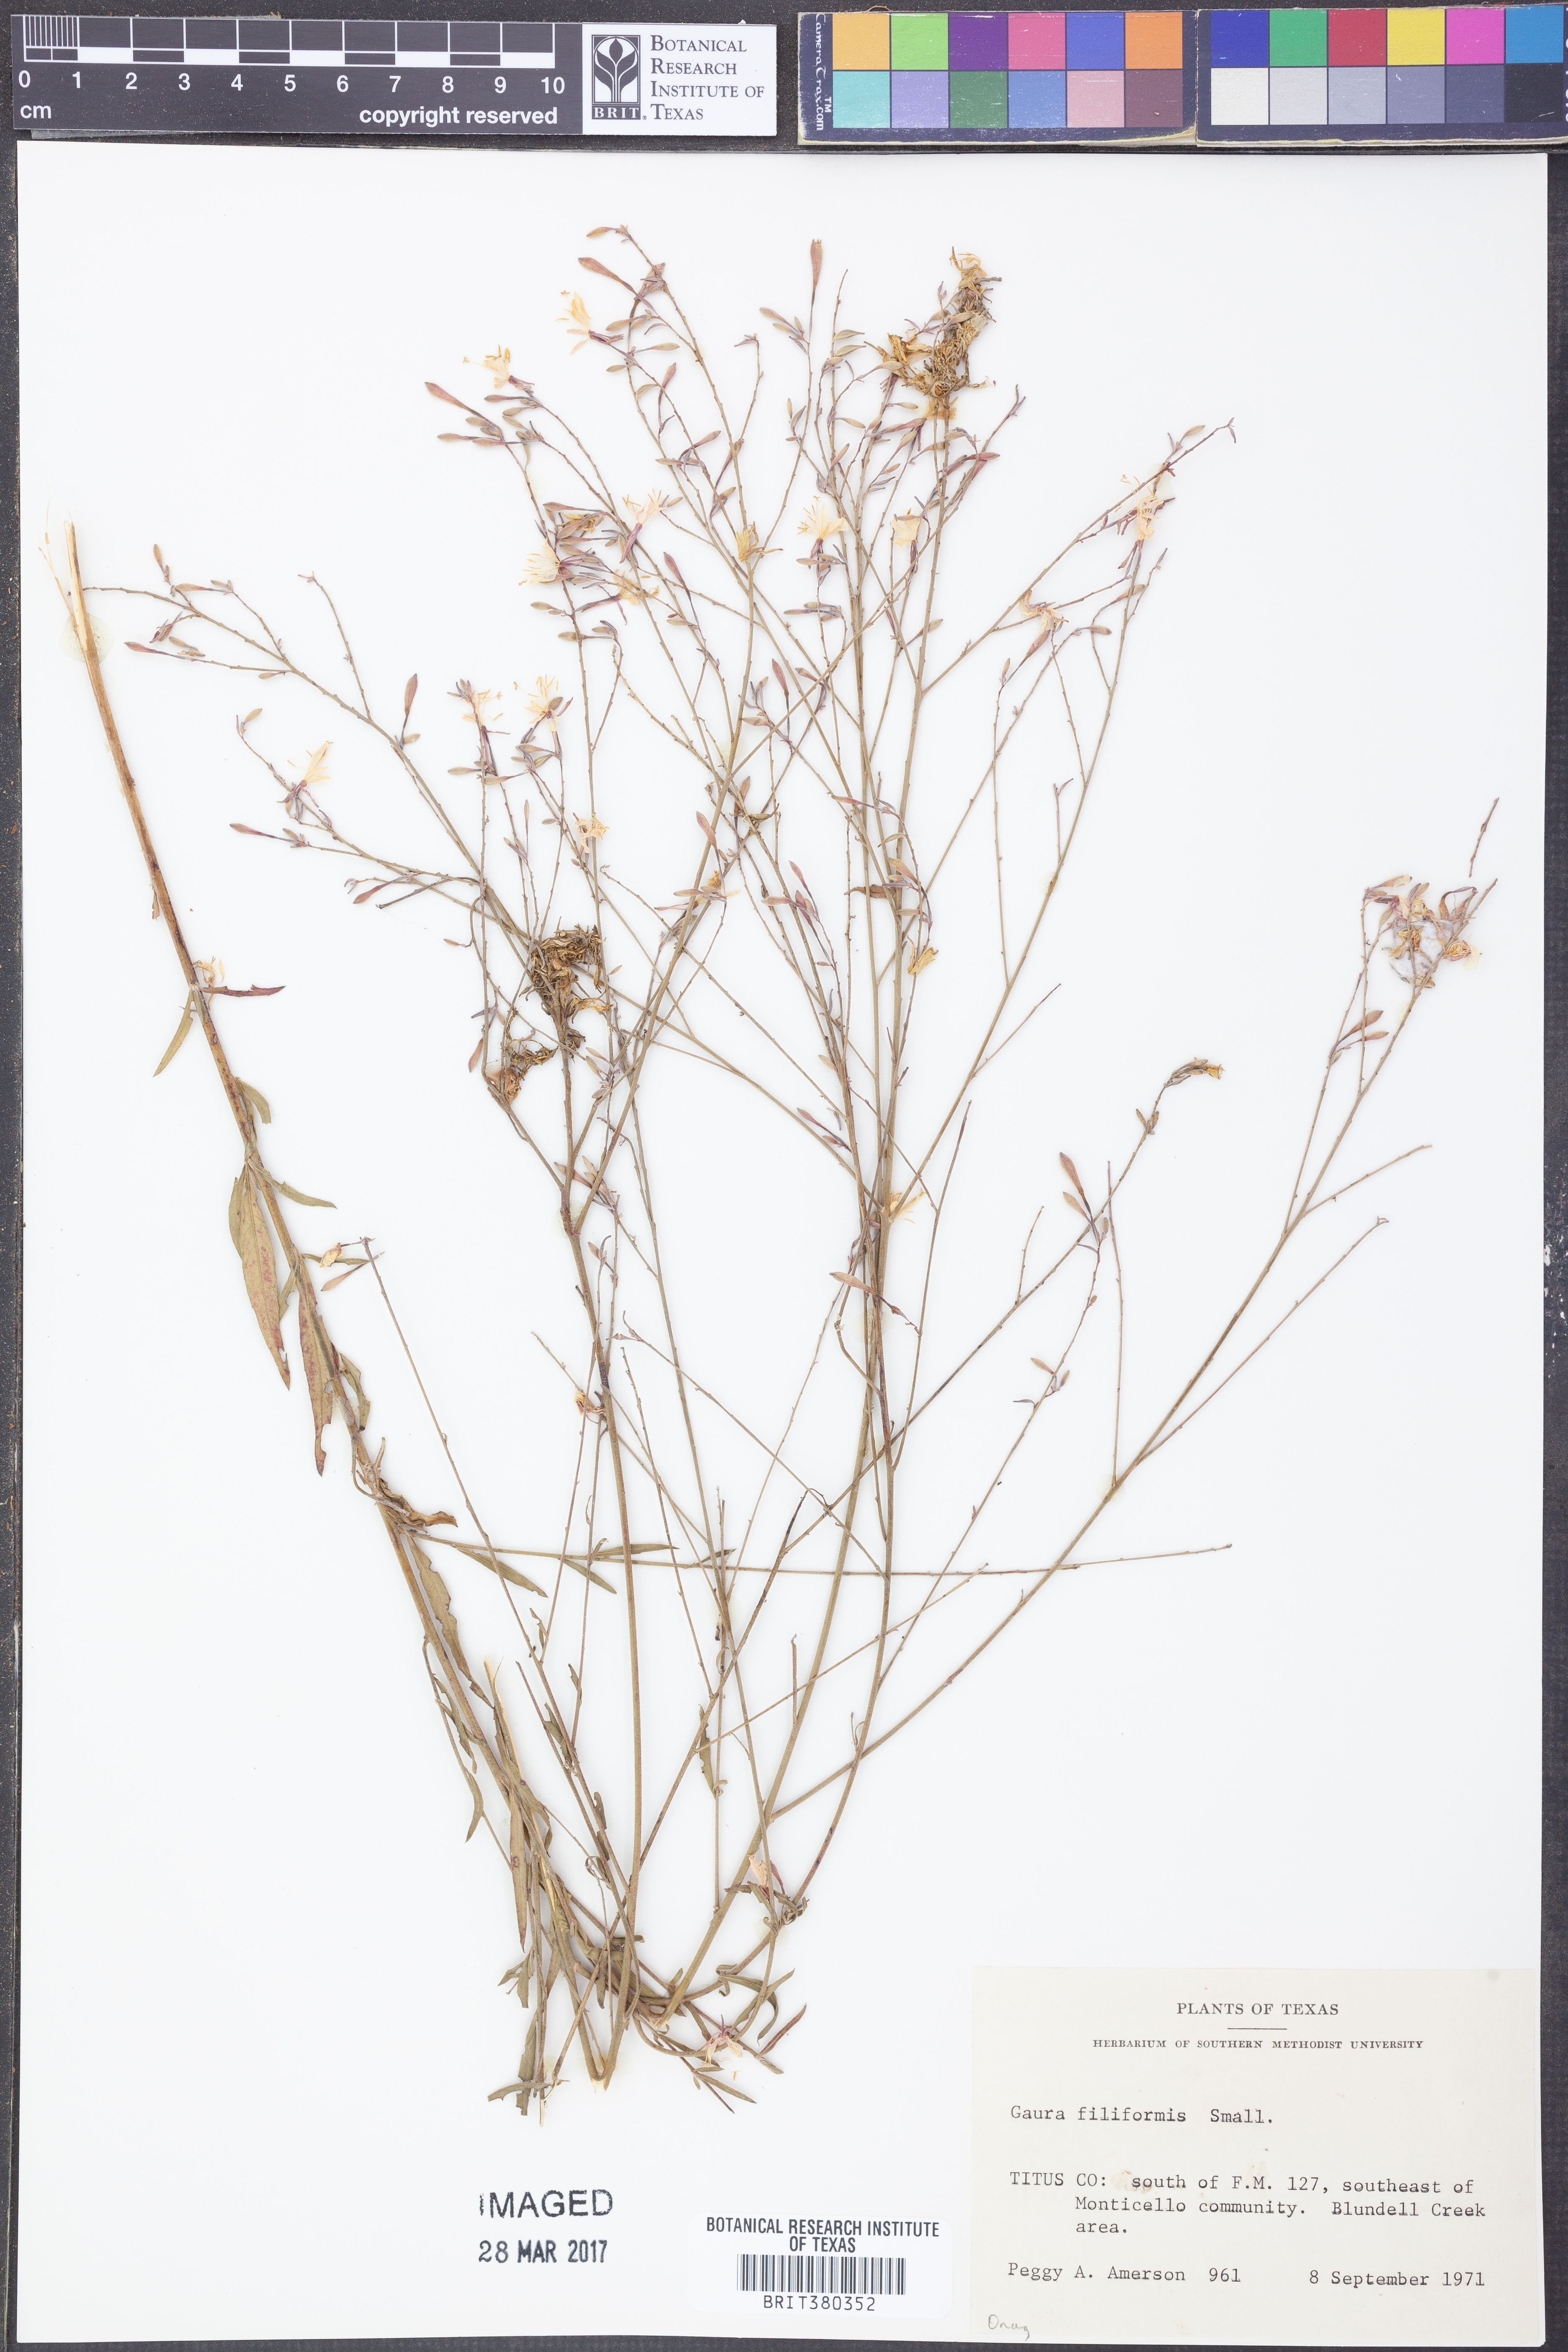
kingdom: Plantae
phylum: Tracheophyta
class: Magnoliopsida
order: Myrtales
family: Onagraceae
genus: Oenothera
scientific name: Oenothera filiformis
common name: Longflower beeblossom
